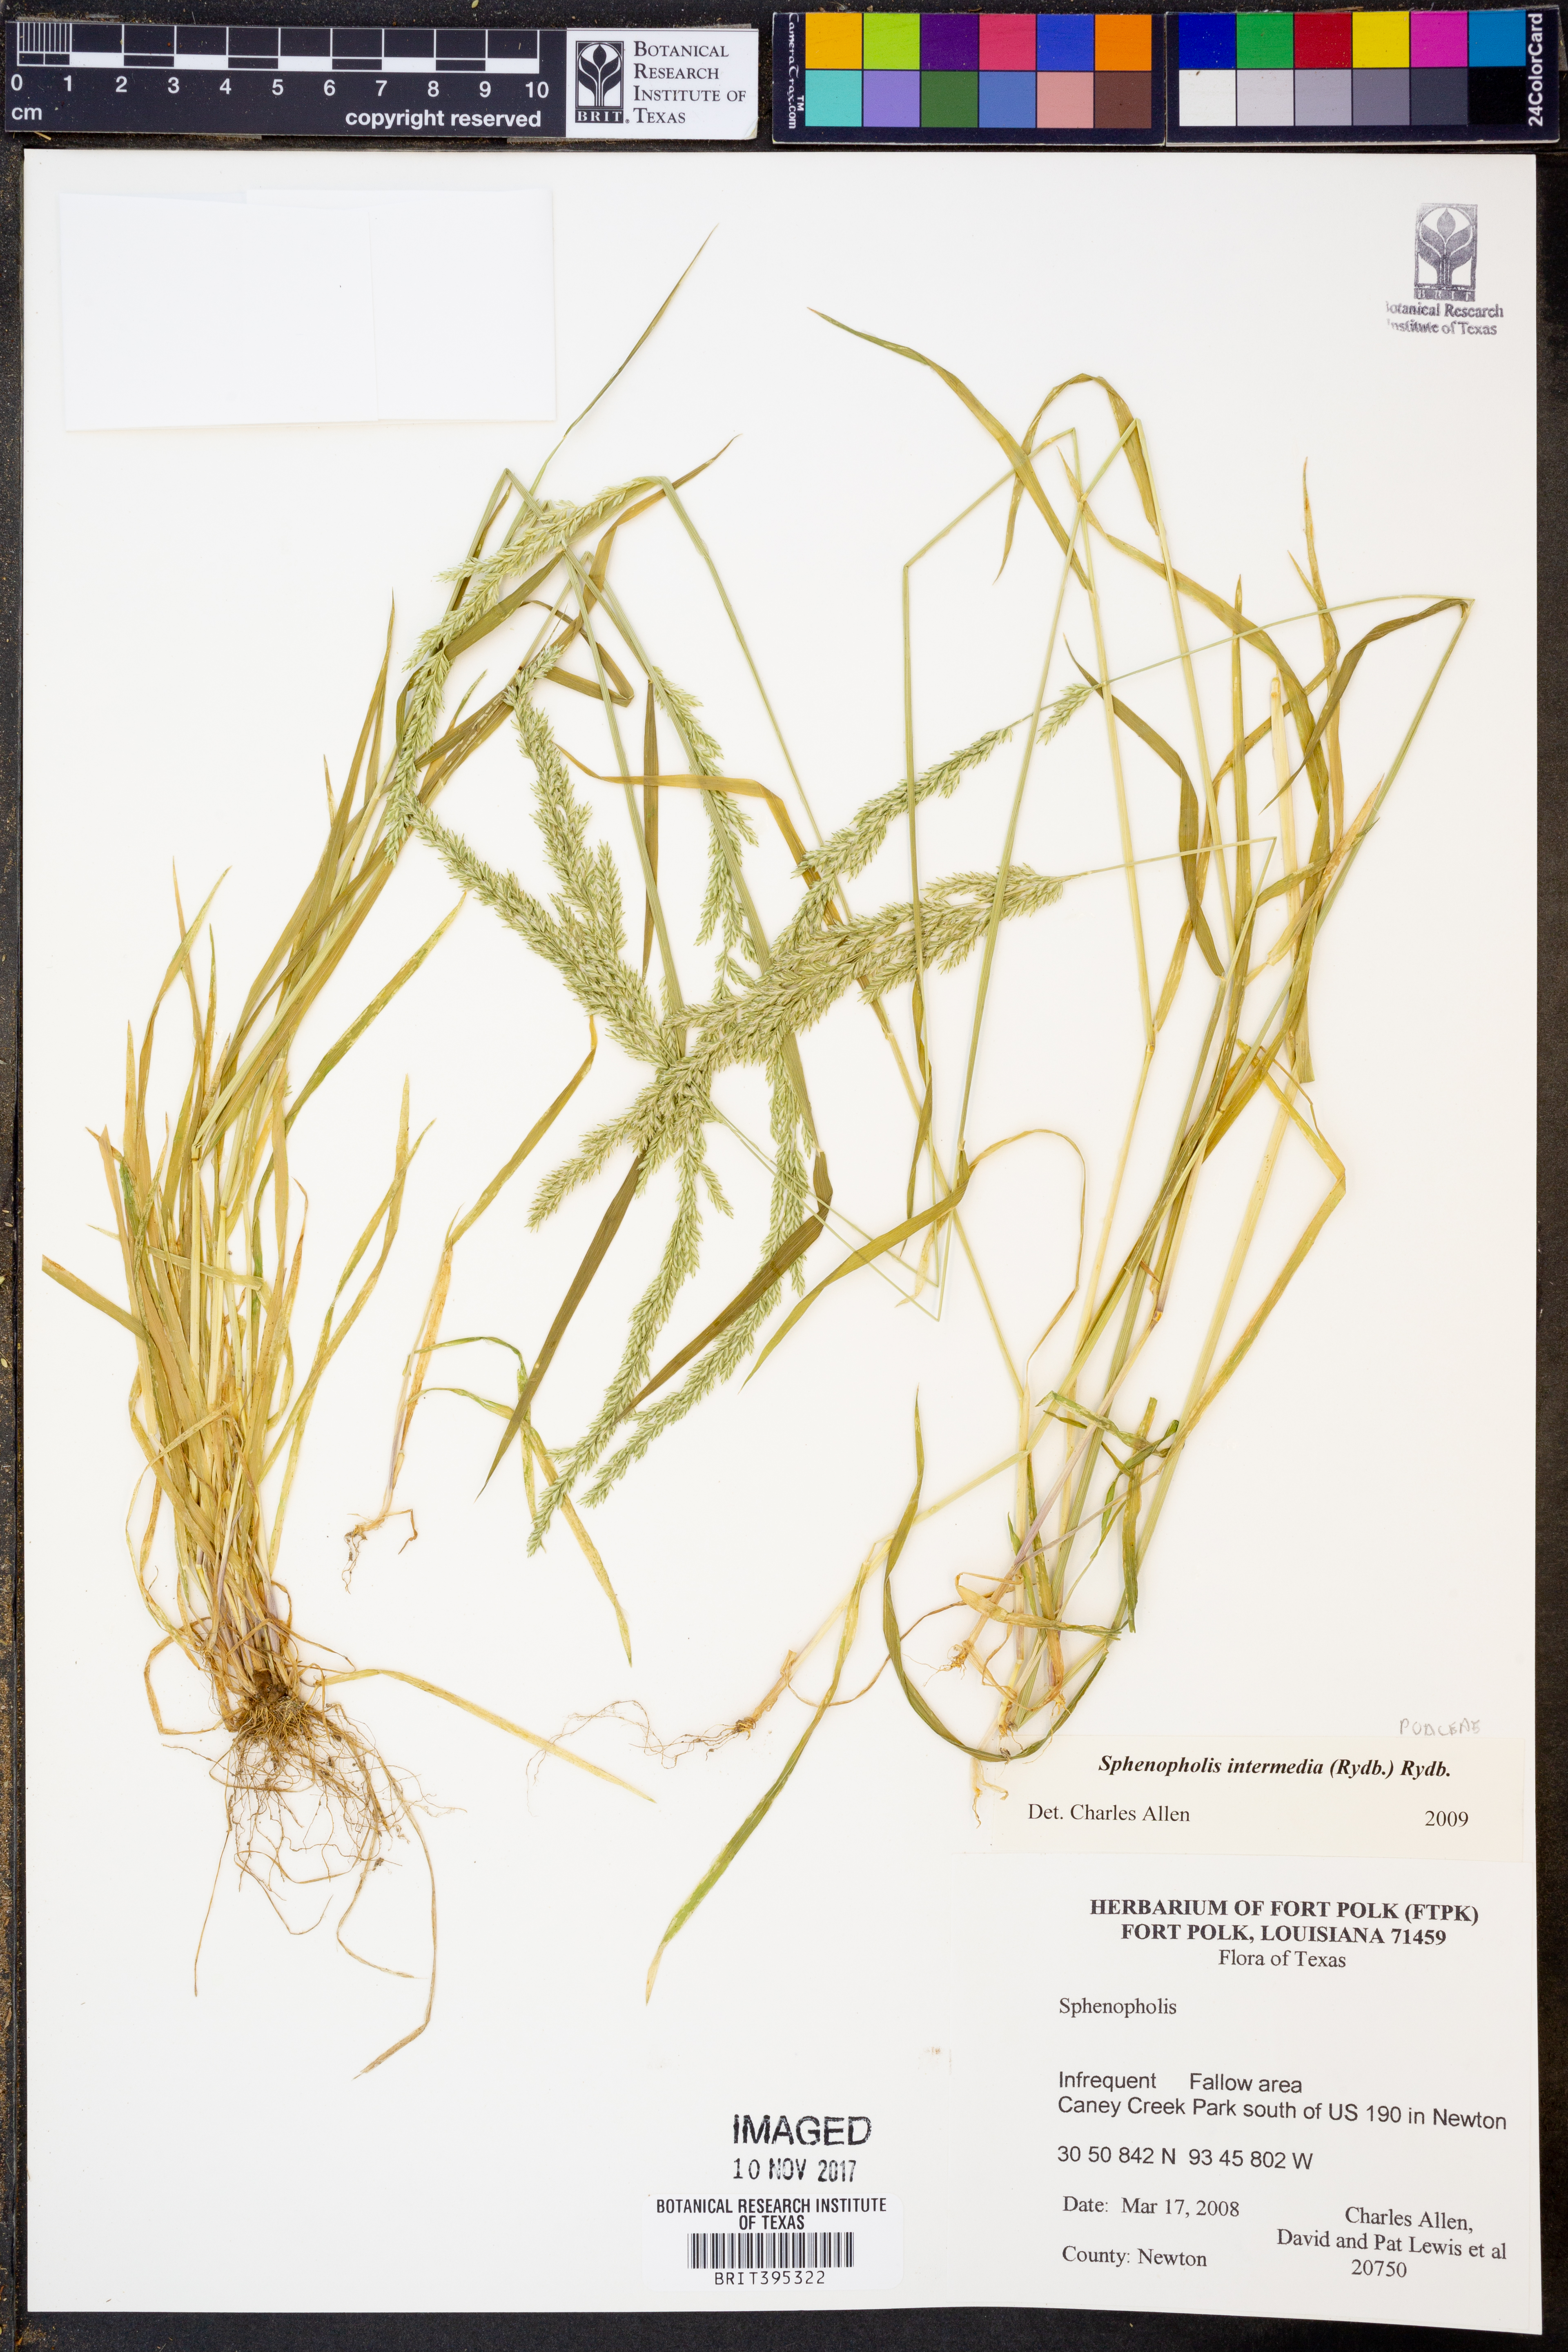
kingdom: Plantae
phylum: Tracheophyta
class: Liliopsida
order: Poales
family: Poaceae
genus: Sphenopholis
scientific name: Sphenopholis intermedia
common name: Intermediate eaton's grass
